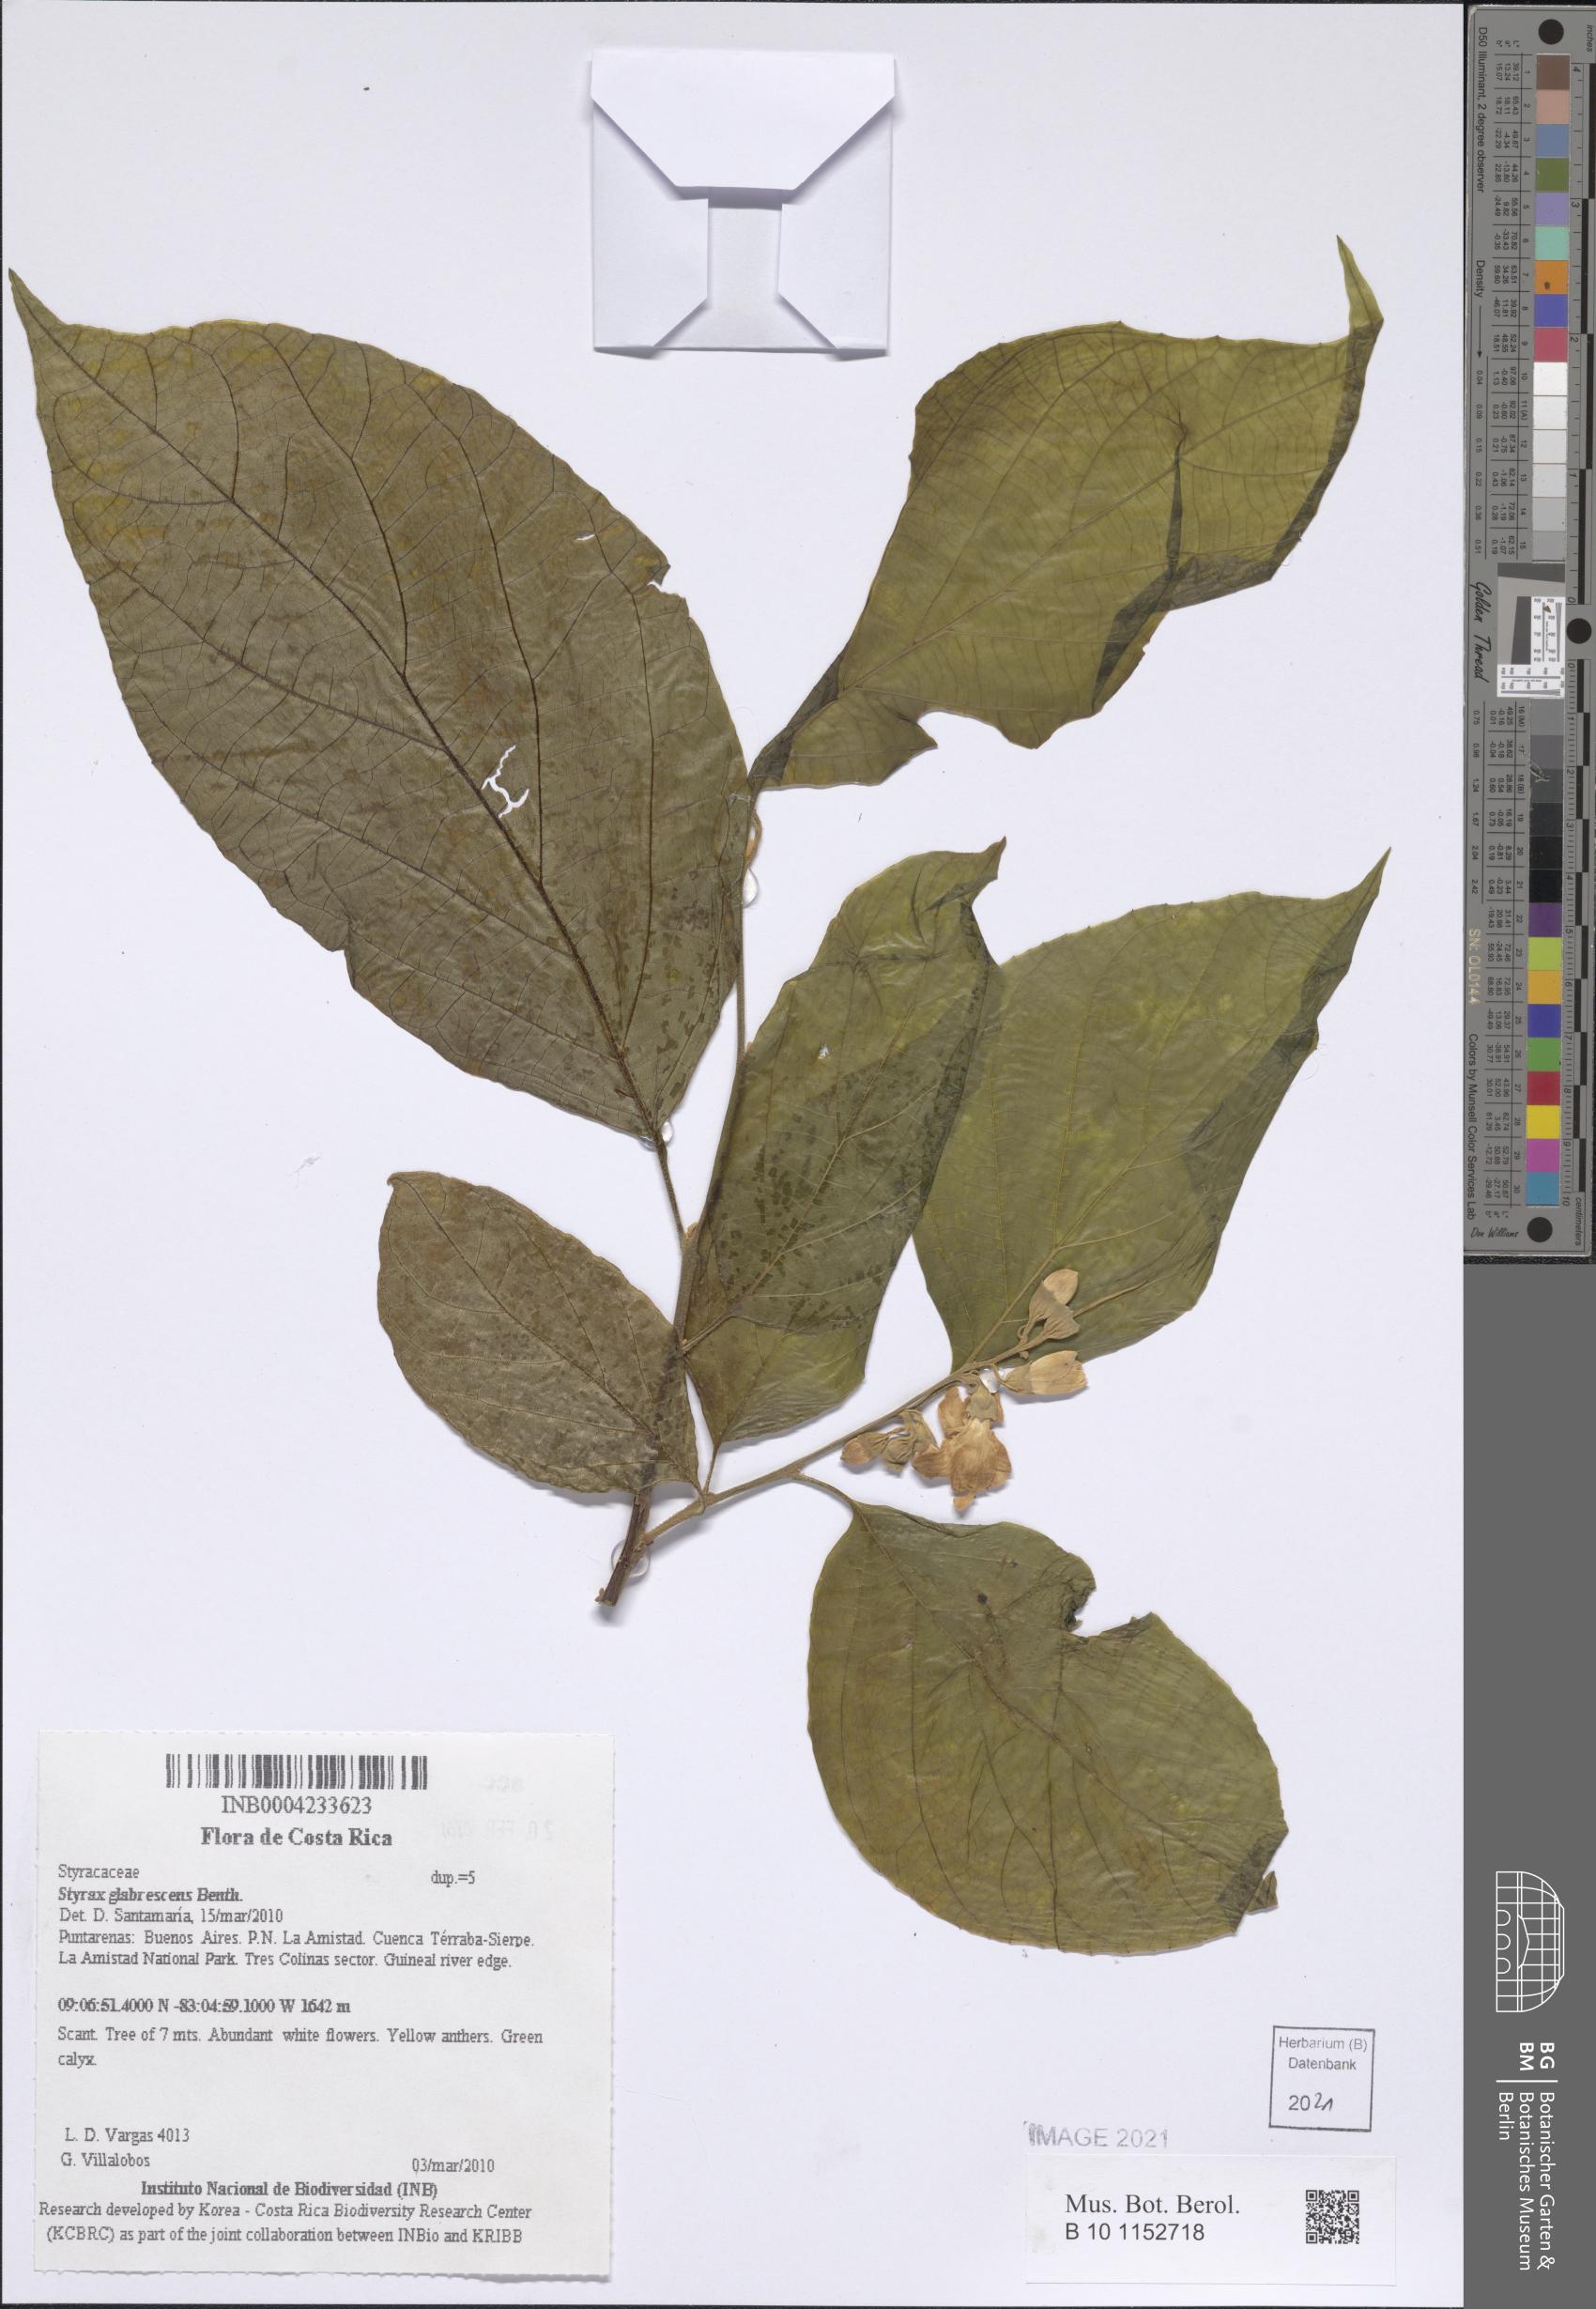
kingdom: Plantae
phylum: Tracheophyta
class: Magnoliopsida
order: Ericales
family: Styracaceae
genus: Styrax
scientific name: Styrax glabrescens
